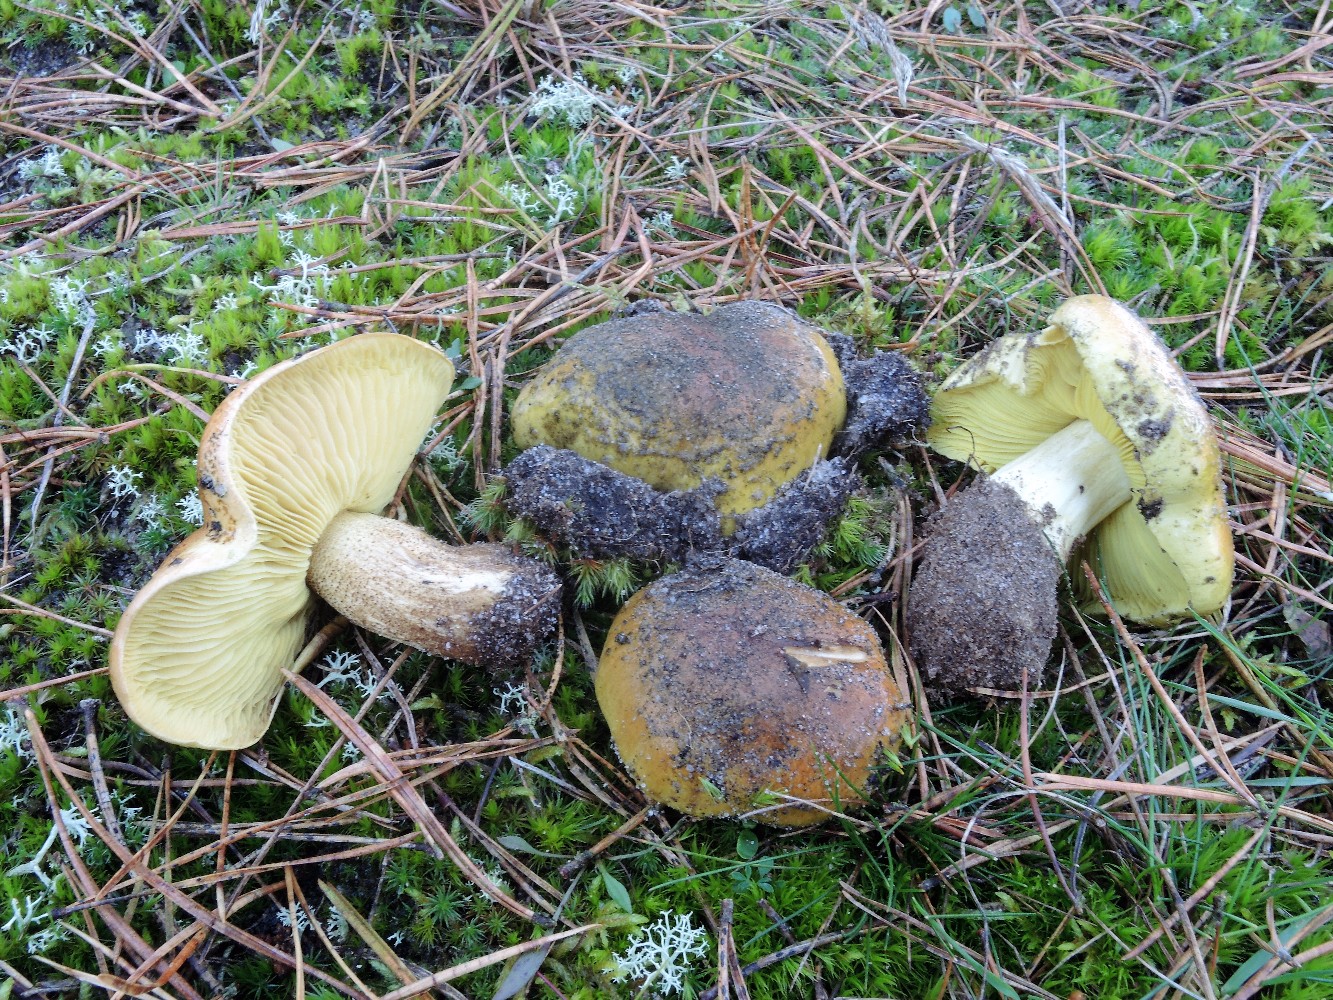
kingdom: Fungi
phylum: Basidiomycota
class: Agaricomycetes
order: Agaricales
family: Tricholomataceae
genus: Tricholoma
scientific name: Tricholoma equestre
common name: ægte ridderhat
